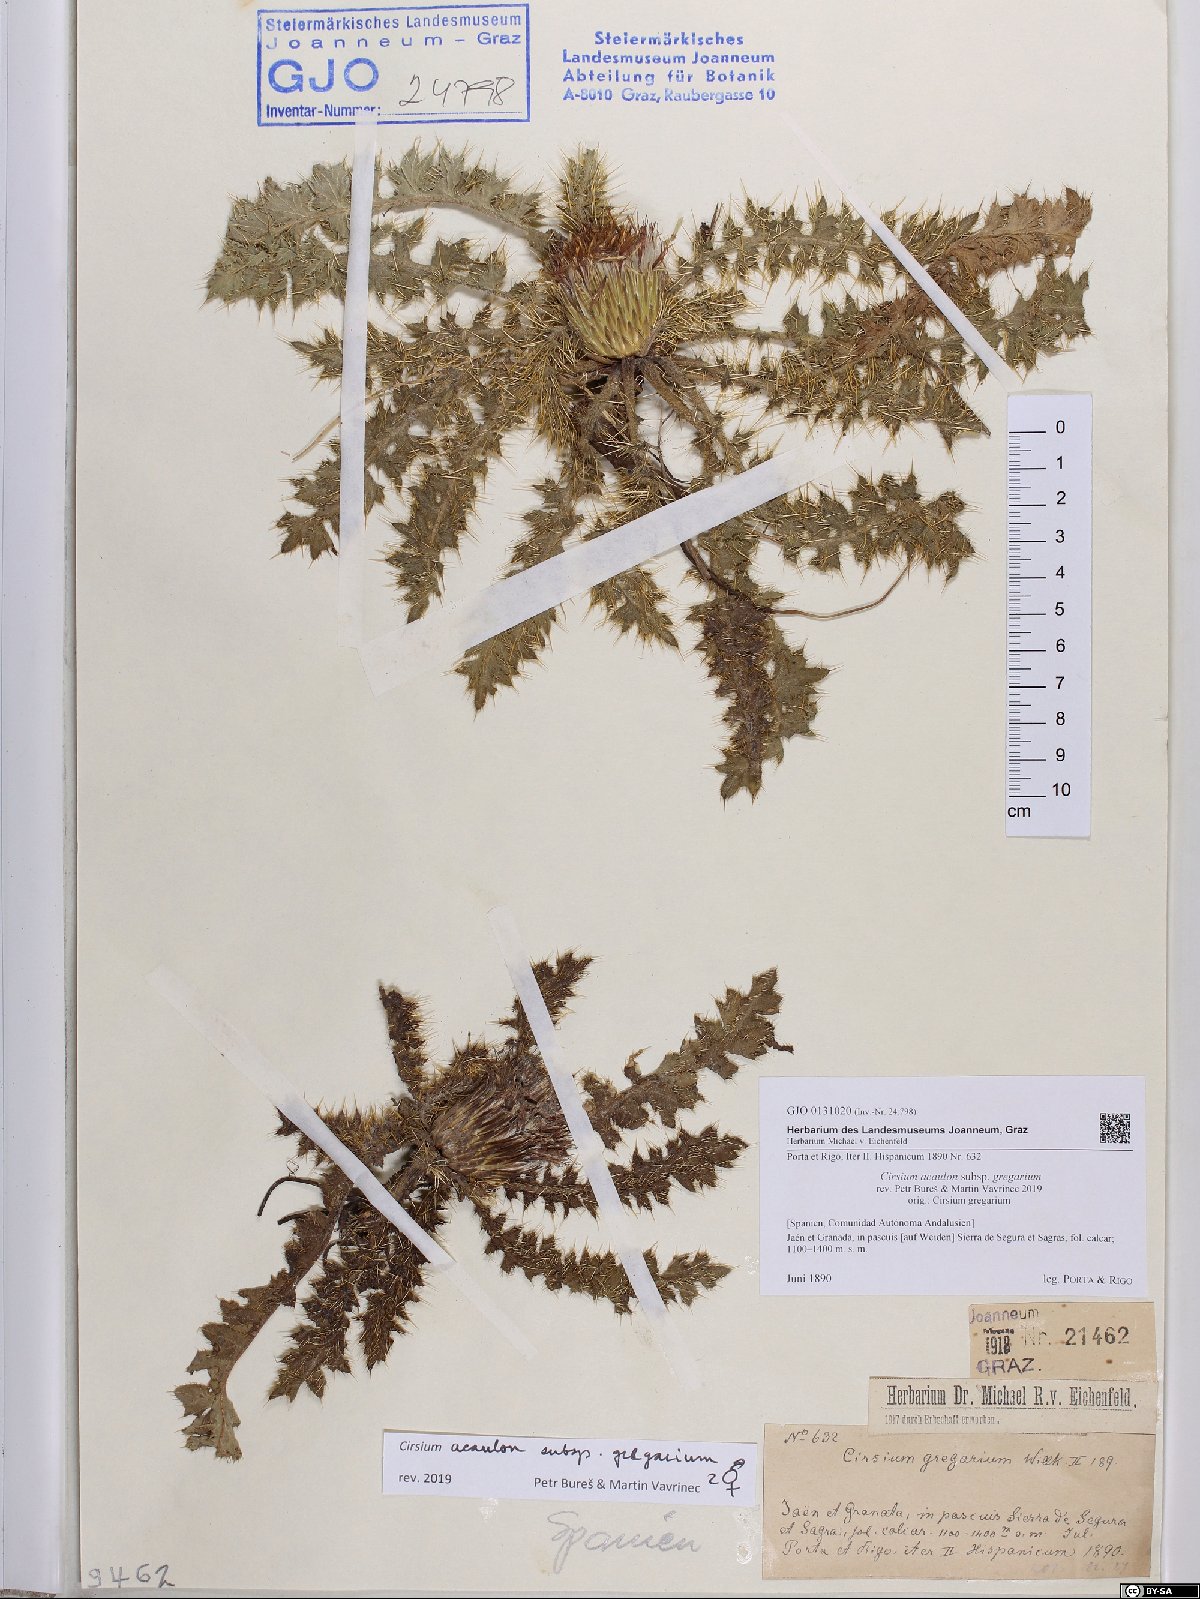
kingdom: Plantae
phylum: Tracheophyta
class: Magnoliopsida
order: Asterales
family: Asteraceae
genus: Cirsium
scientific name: Cirsium acaule
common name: Dwarf thistle
